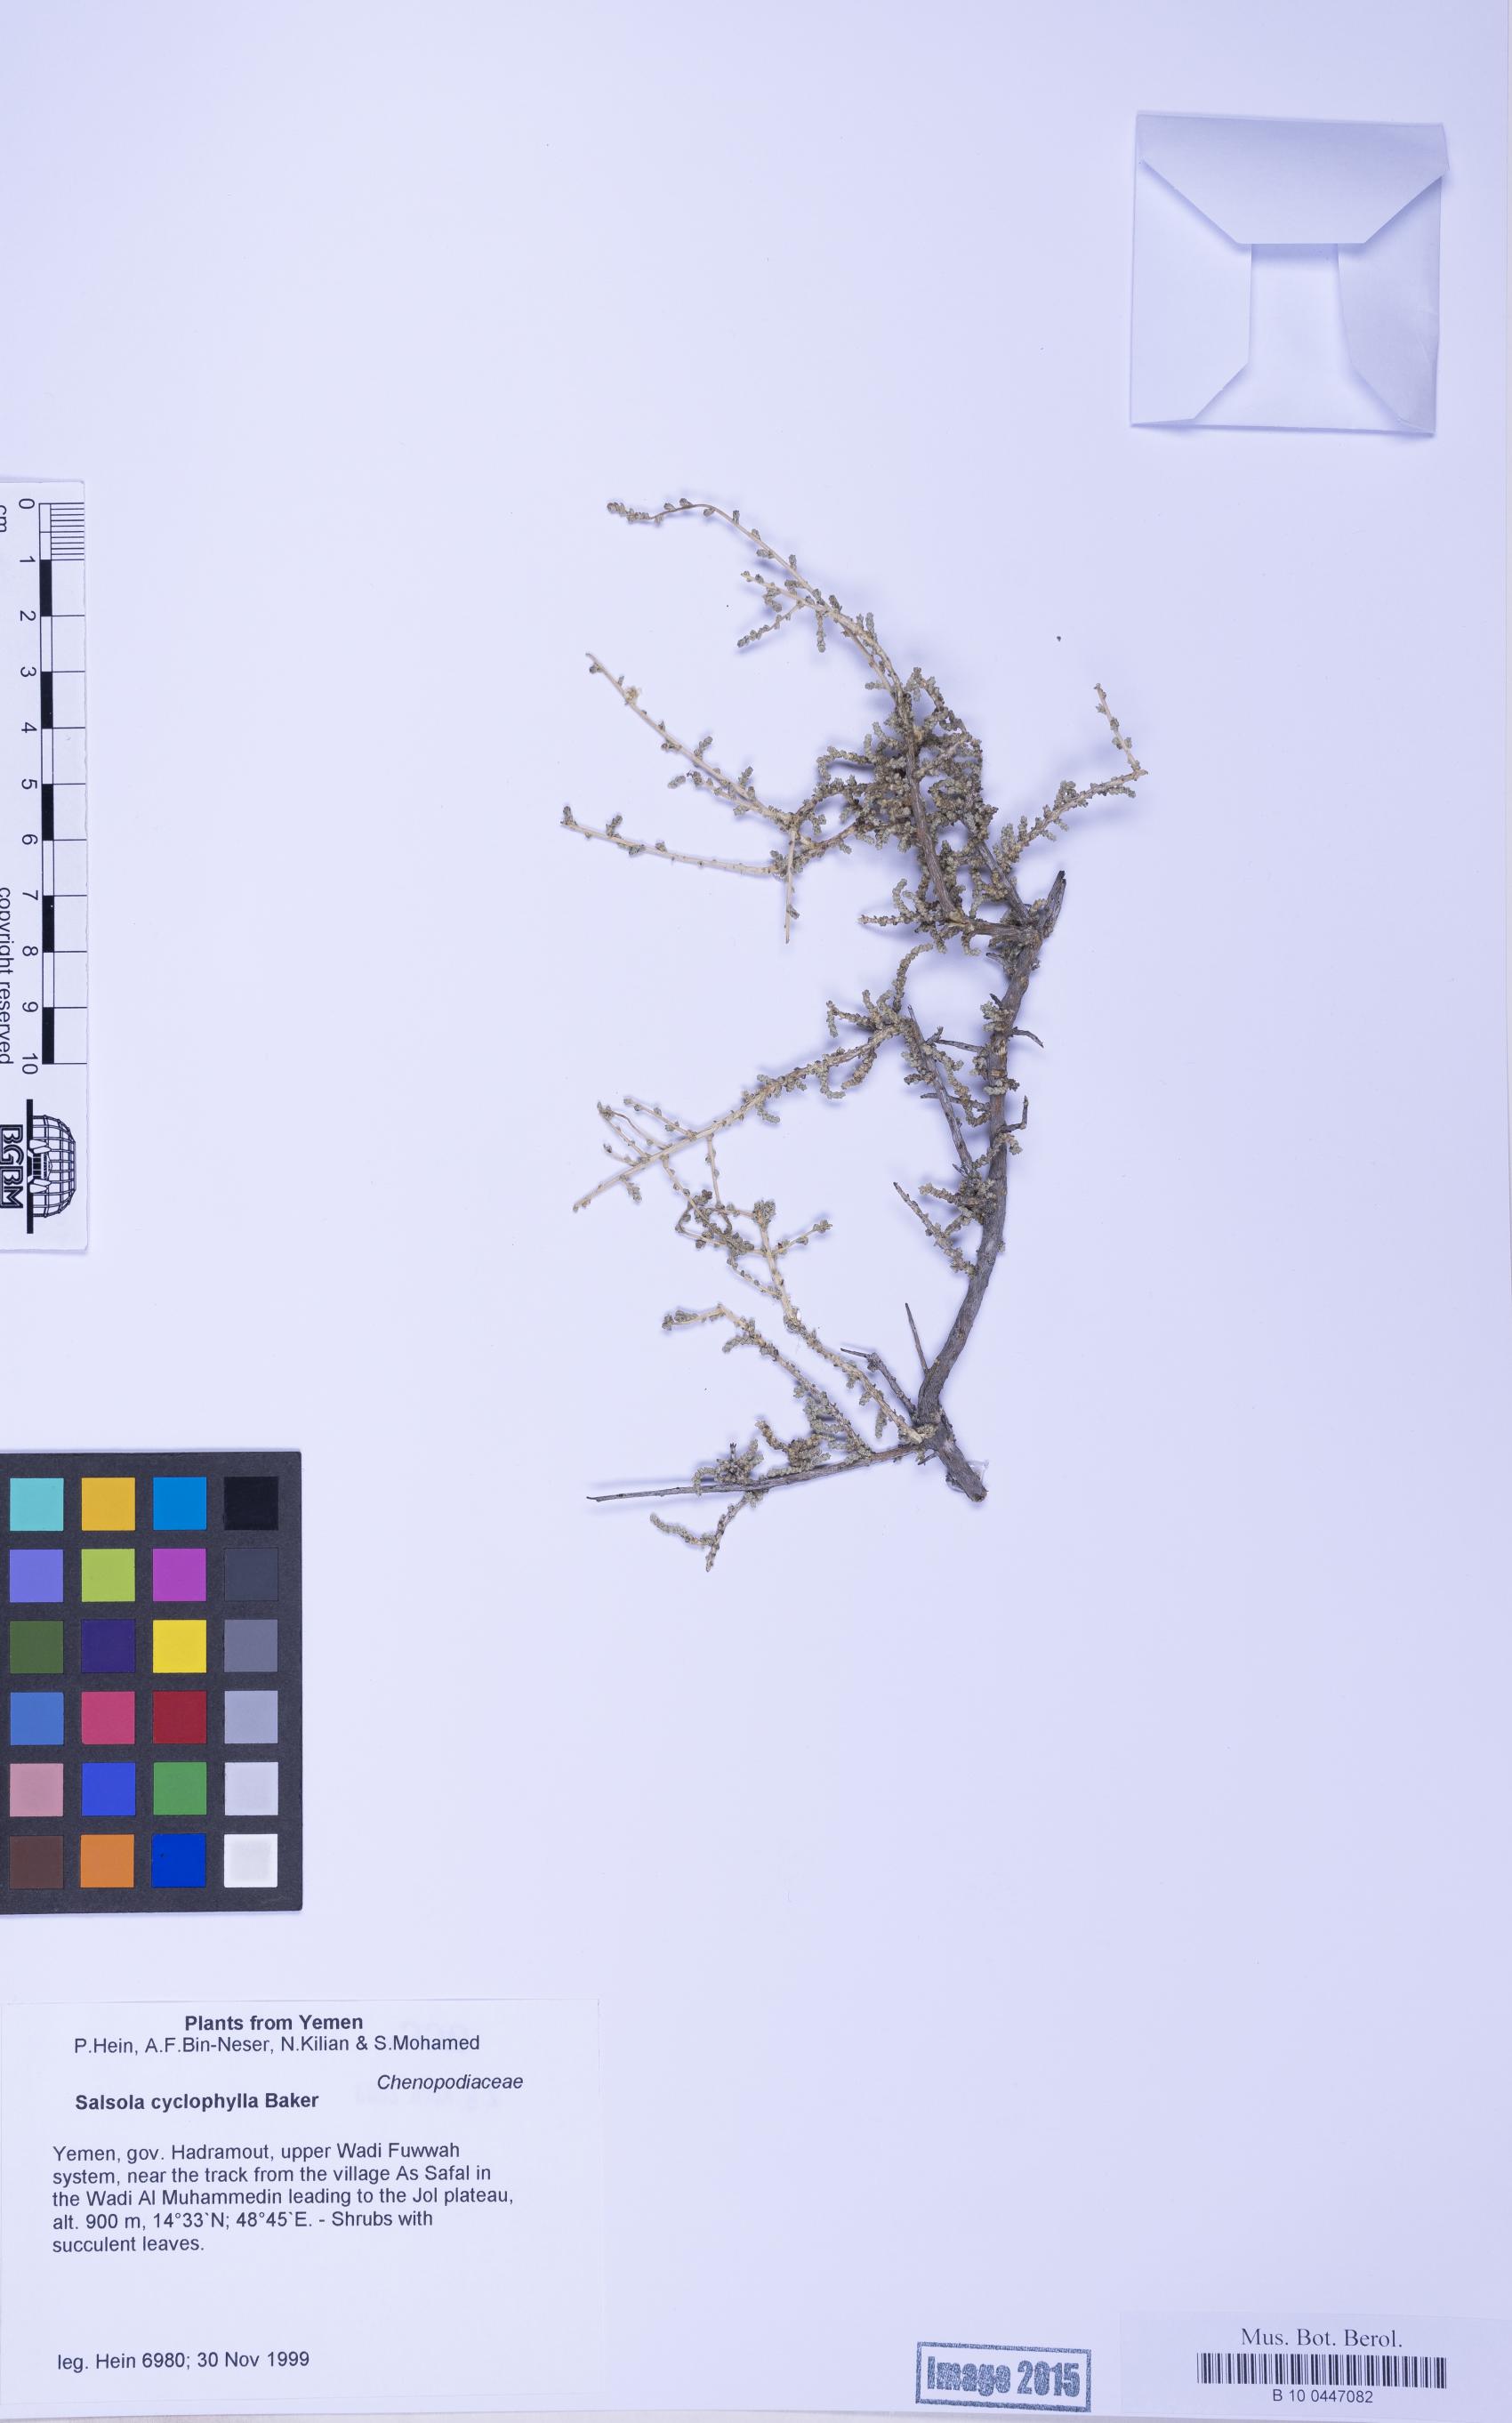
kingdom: Plantae
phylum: Tracheophyta
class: Magnoliopsida
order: Caryophyllales
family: Amaranthaceae
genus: Caroxylon
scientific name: Caroxylon cyclophyllum
